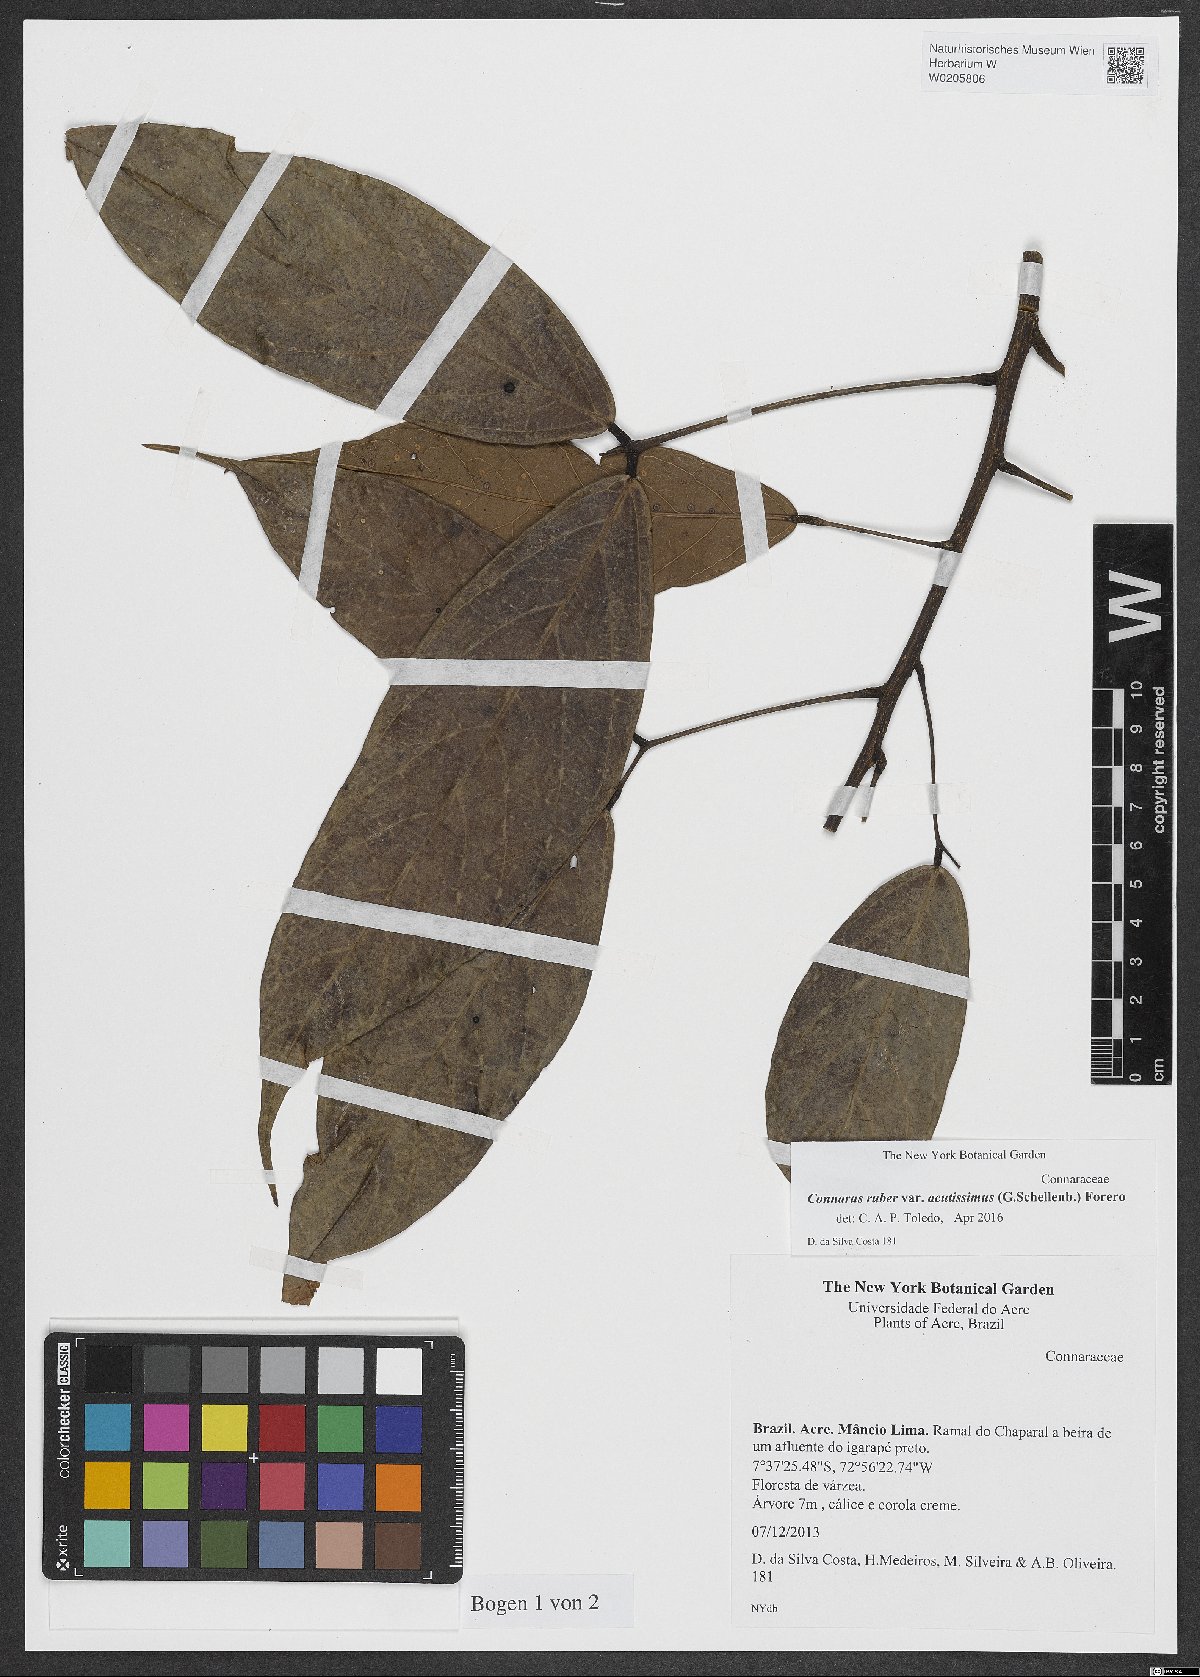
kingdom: Plantae
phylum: Tracheophyta
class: Magnoliopsida
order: Oxalidales
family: Connaraceae
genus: Connarus
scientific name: Connarus ruber
